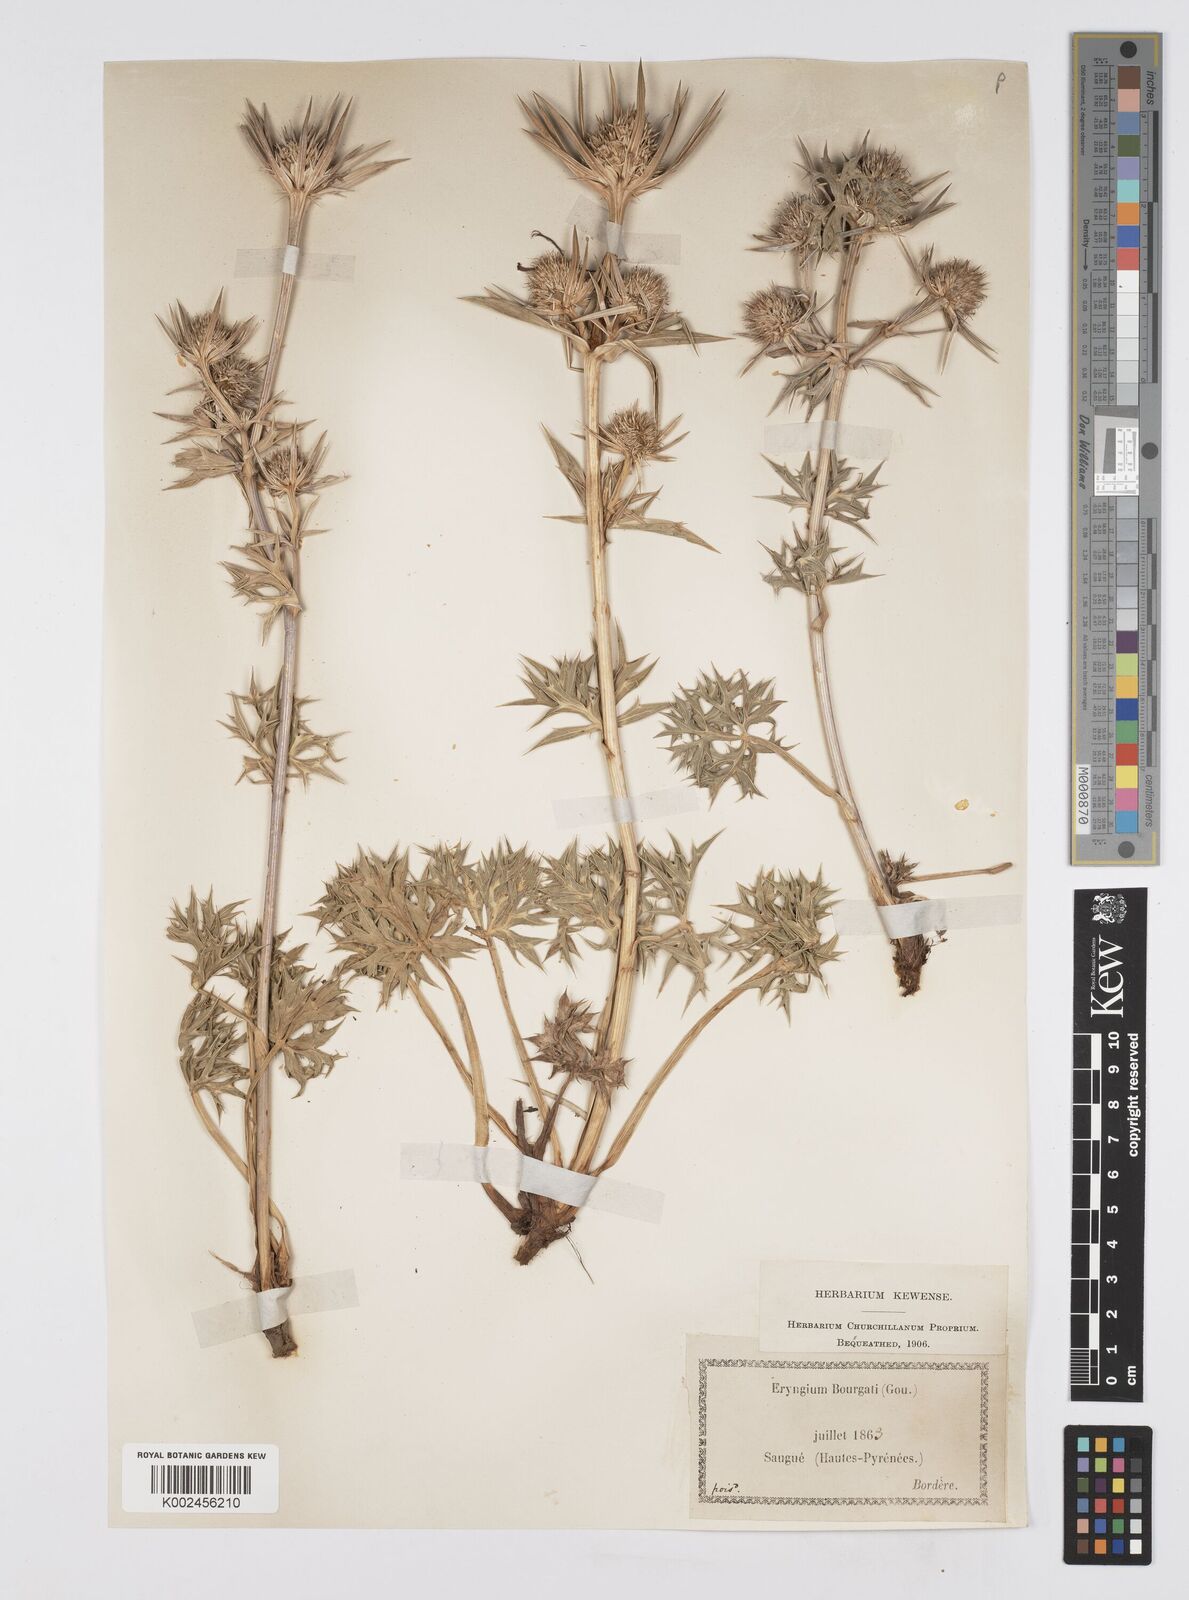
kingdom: Plantae
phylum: Tracheophyta
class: Magnoliopsida
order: Apiales
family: Apiaceae
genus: Eryngium
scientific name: Eryngium bourgatii
